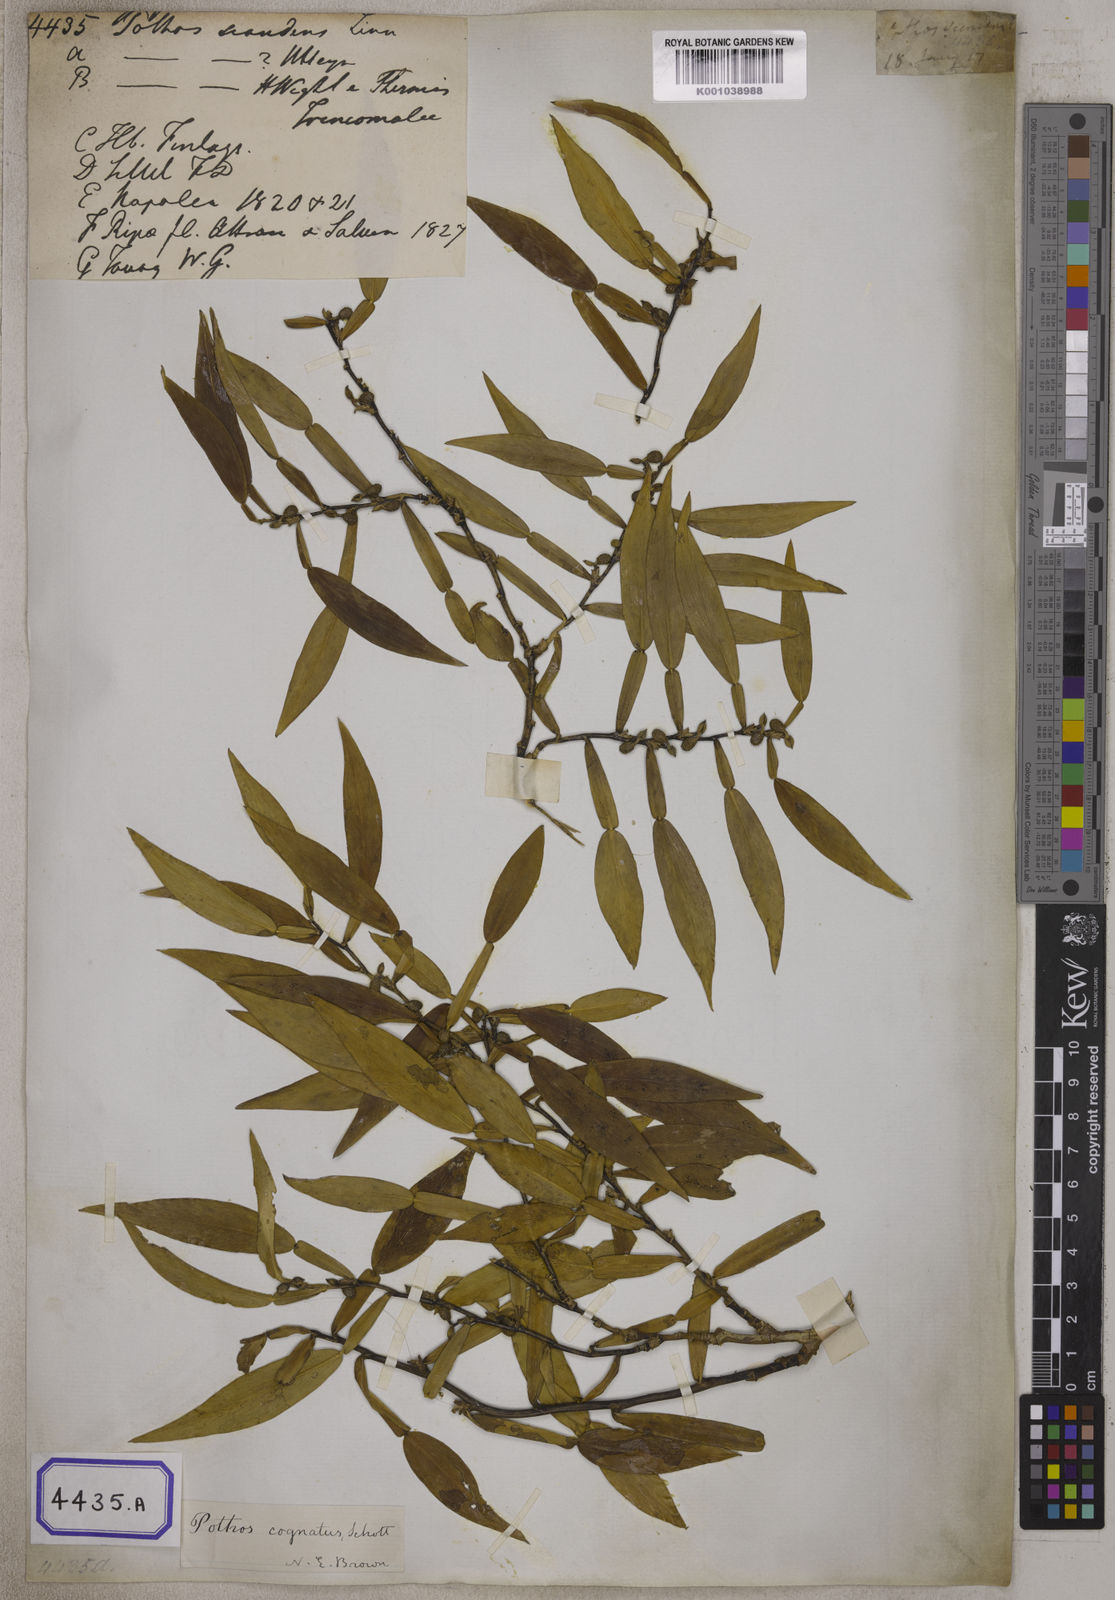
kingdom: Plantae
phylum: Tracheophyta
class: Liliopsida
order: Alismatales
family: Araceae
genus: Pothos
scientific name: Pothos scandens
